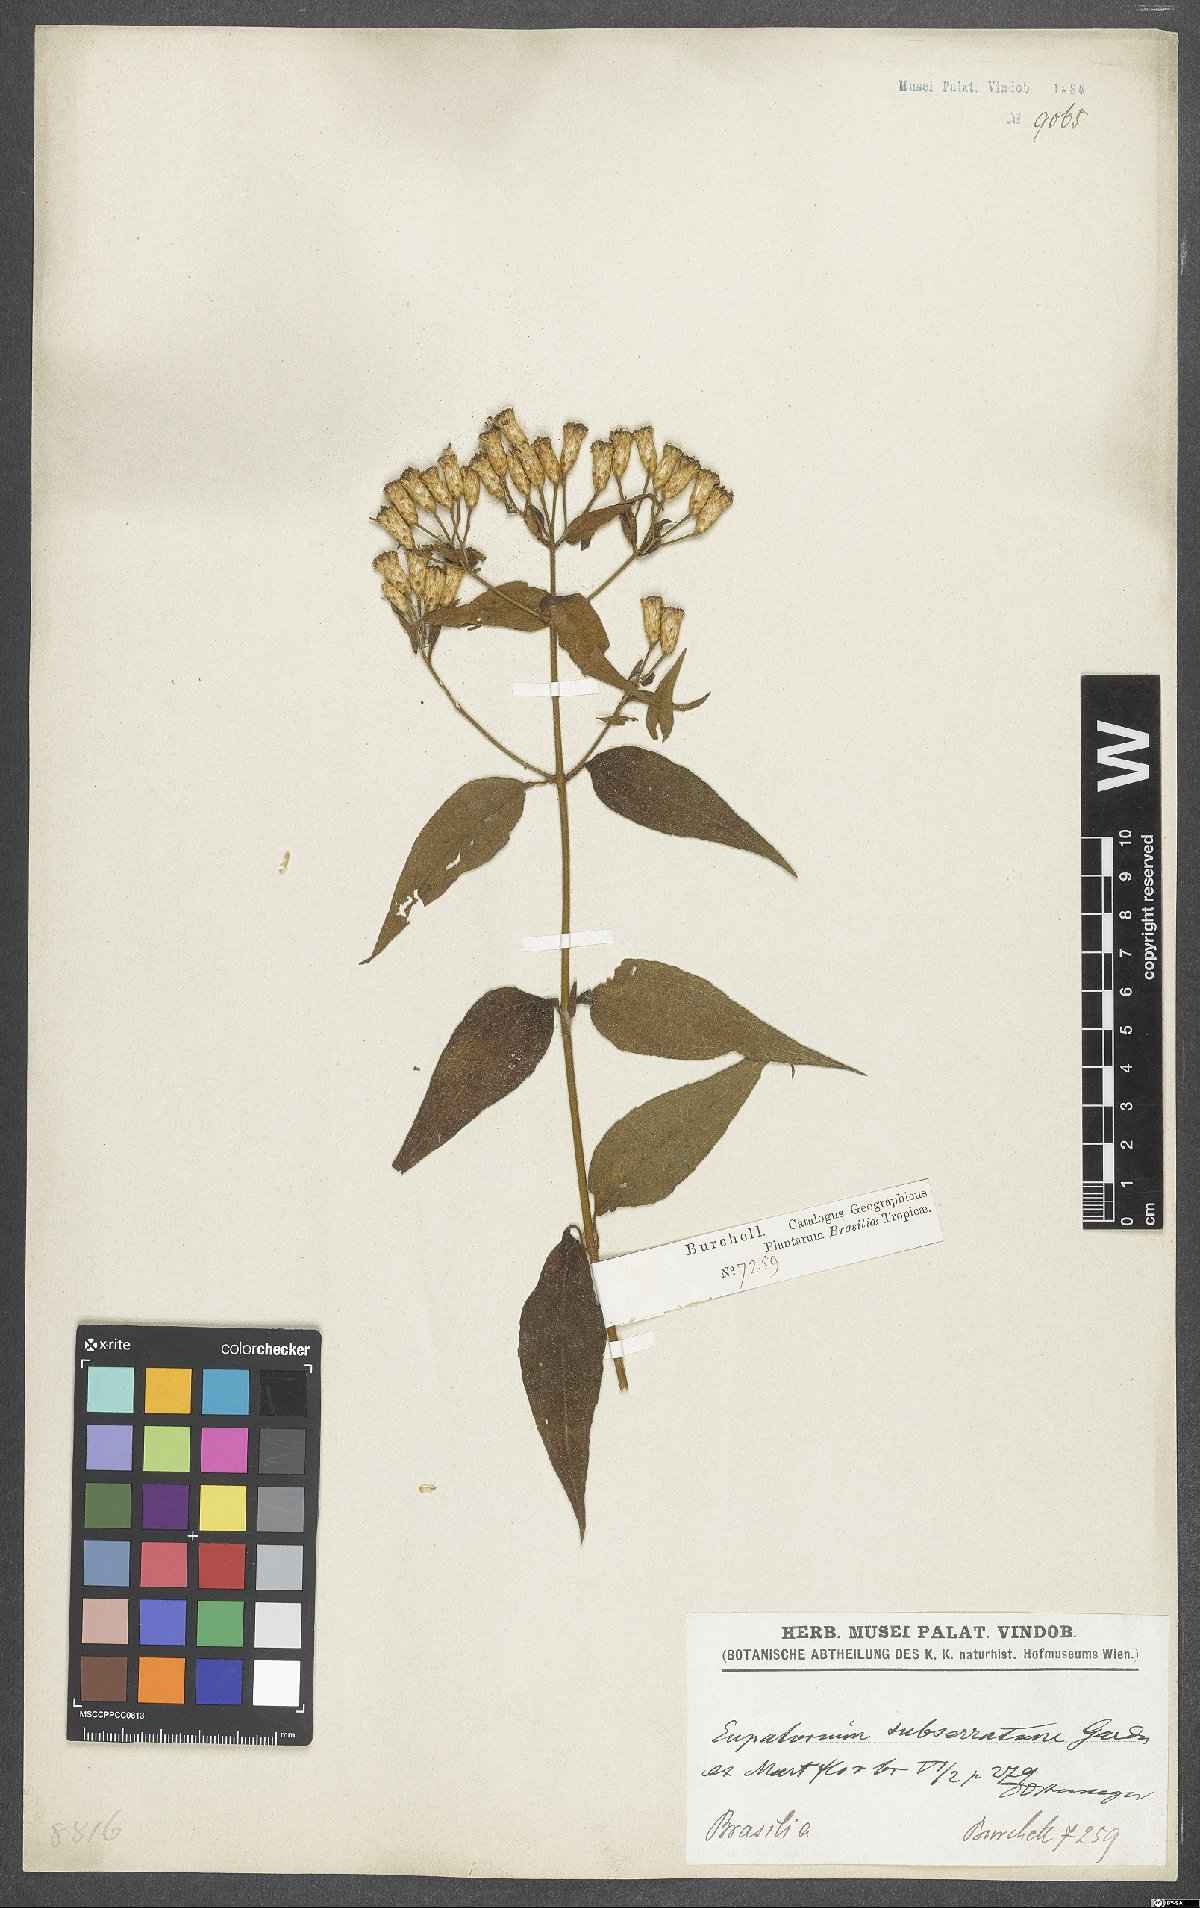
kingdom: Plantae
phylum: Tracheophyta
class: Magnoliopsida
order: Asterales
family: Asteraceae
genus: Chromolaena
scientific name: Chromolaena mucronata
